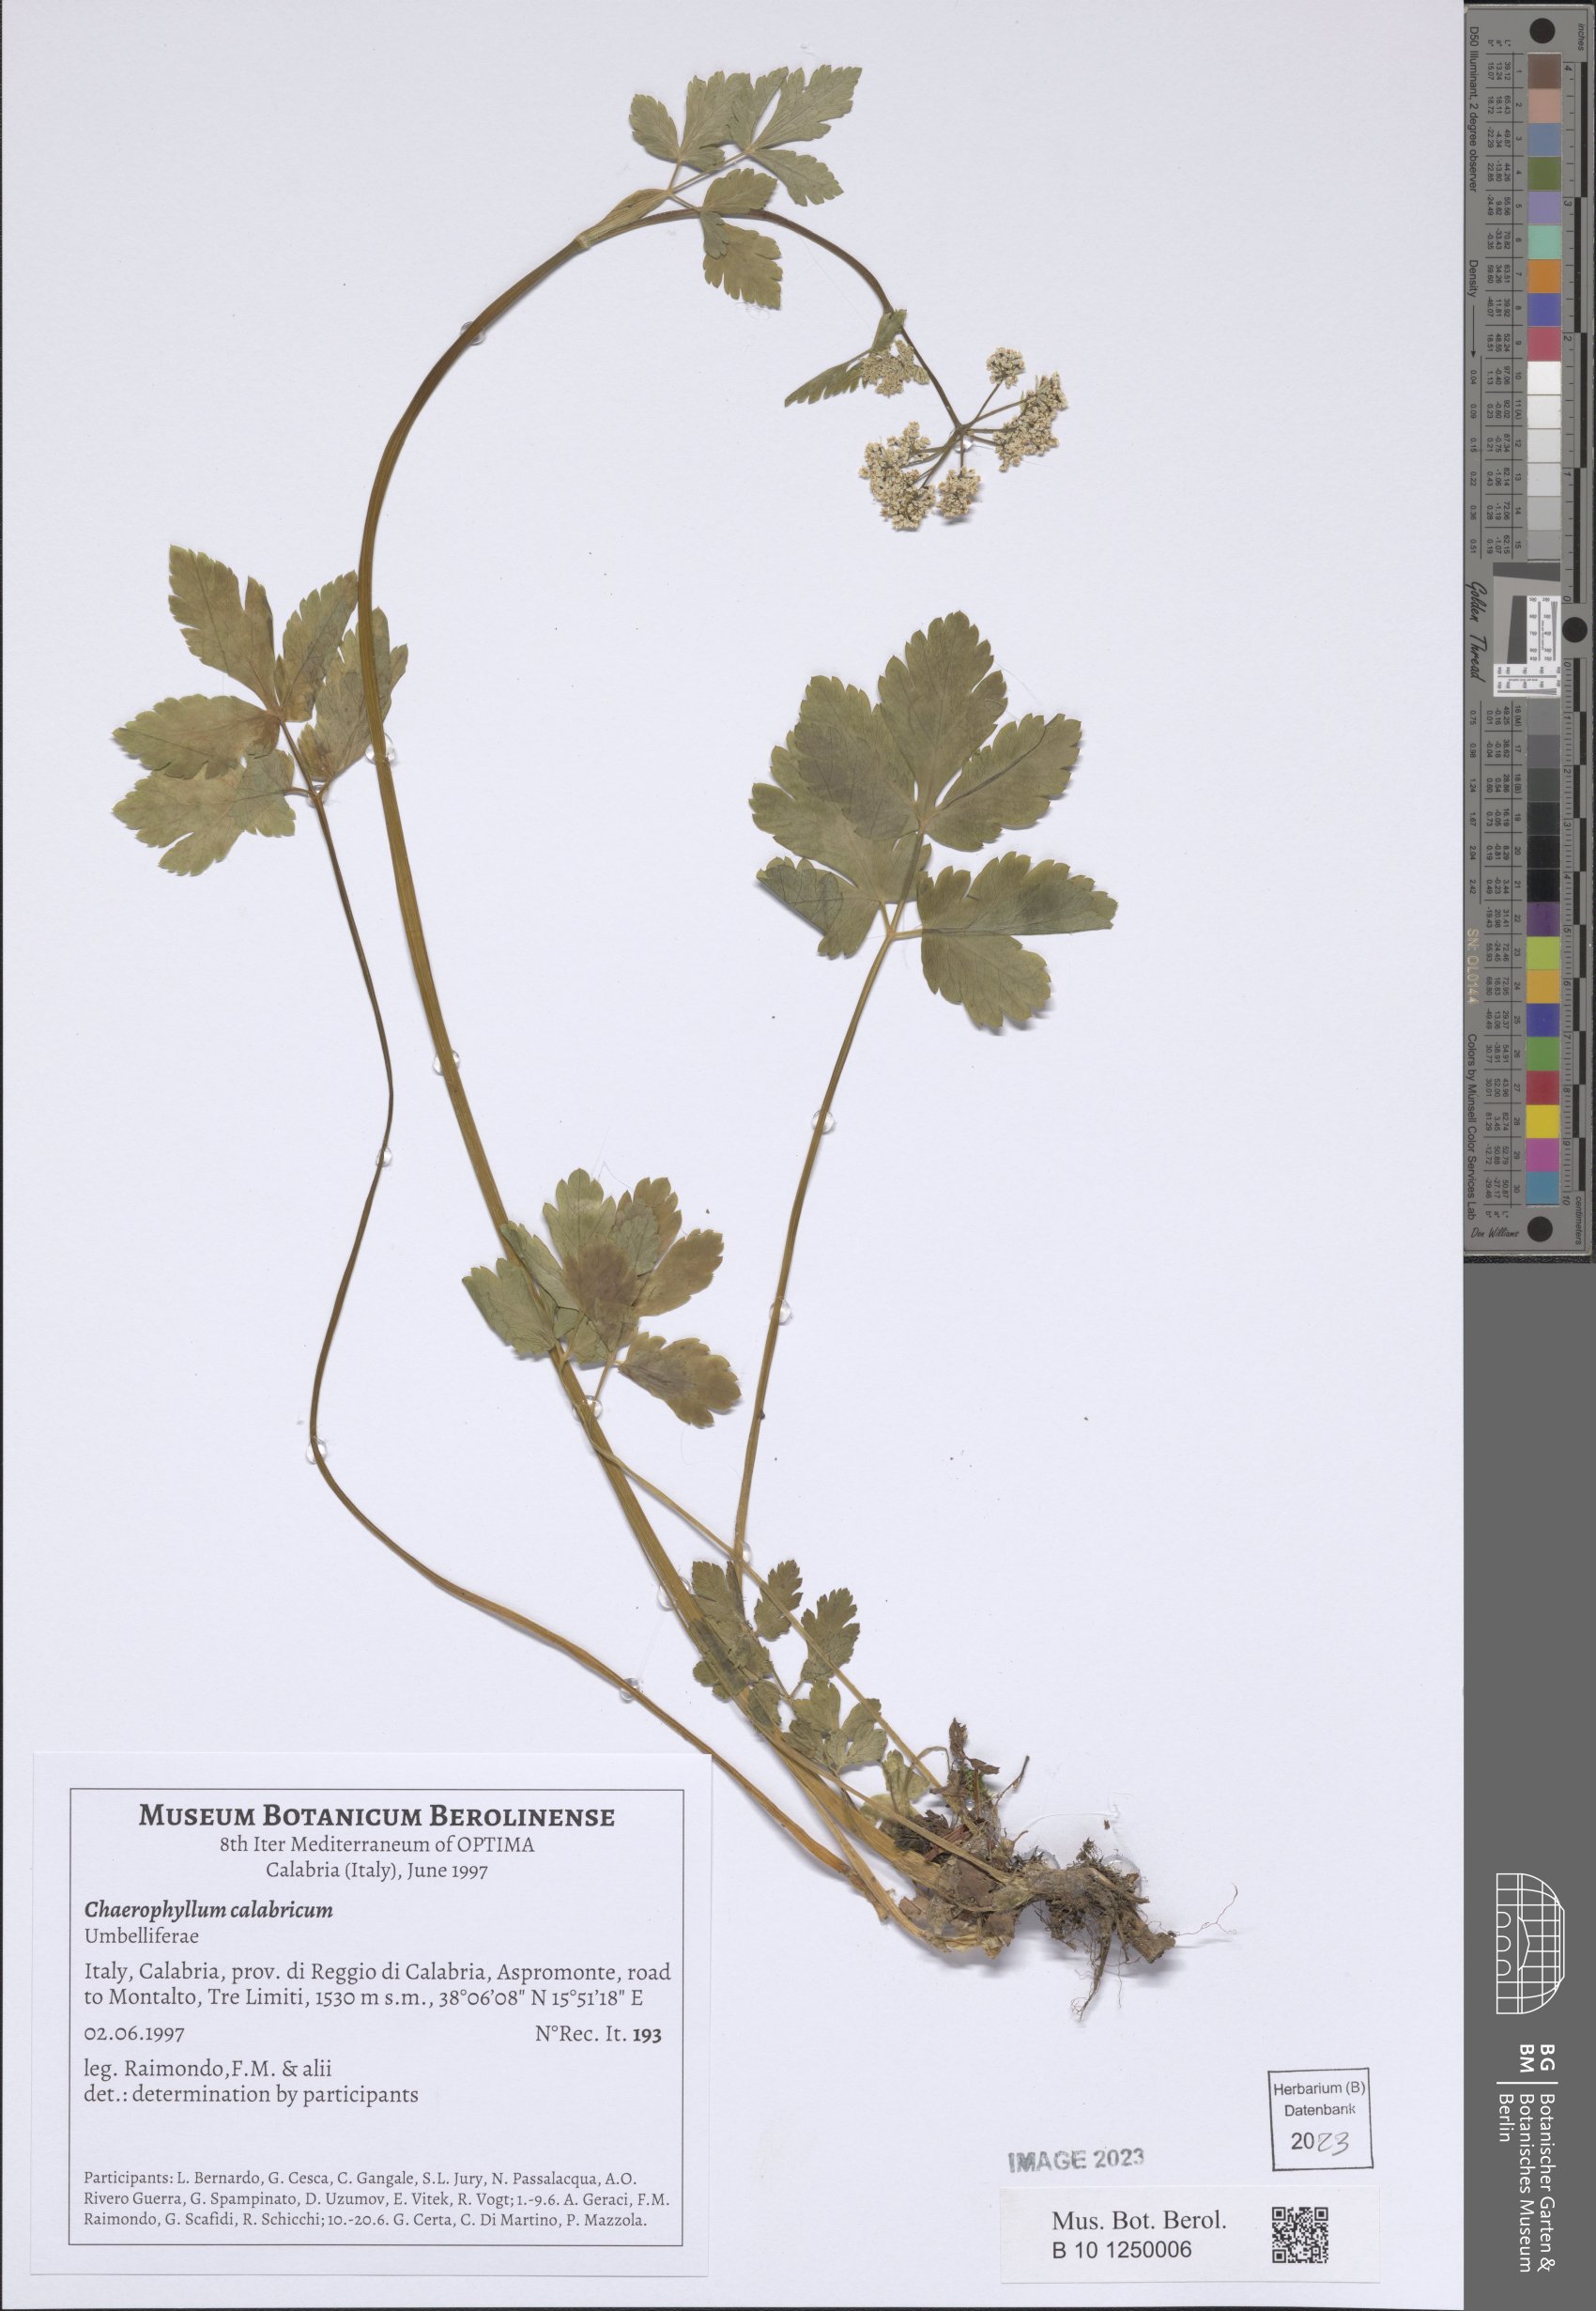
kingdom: Plantae
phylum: Tracheophyta
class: Magnoliopsida
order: Apiales
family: Apiaceae
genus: Chaerophyllum
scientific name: Chaerophyllum hirsutum
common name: Hairy chervil
